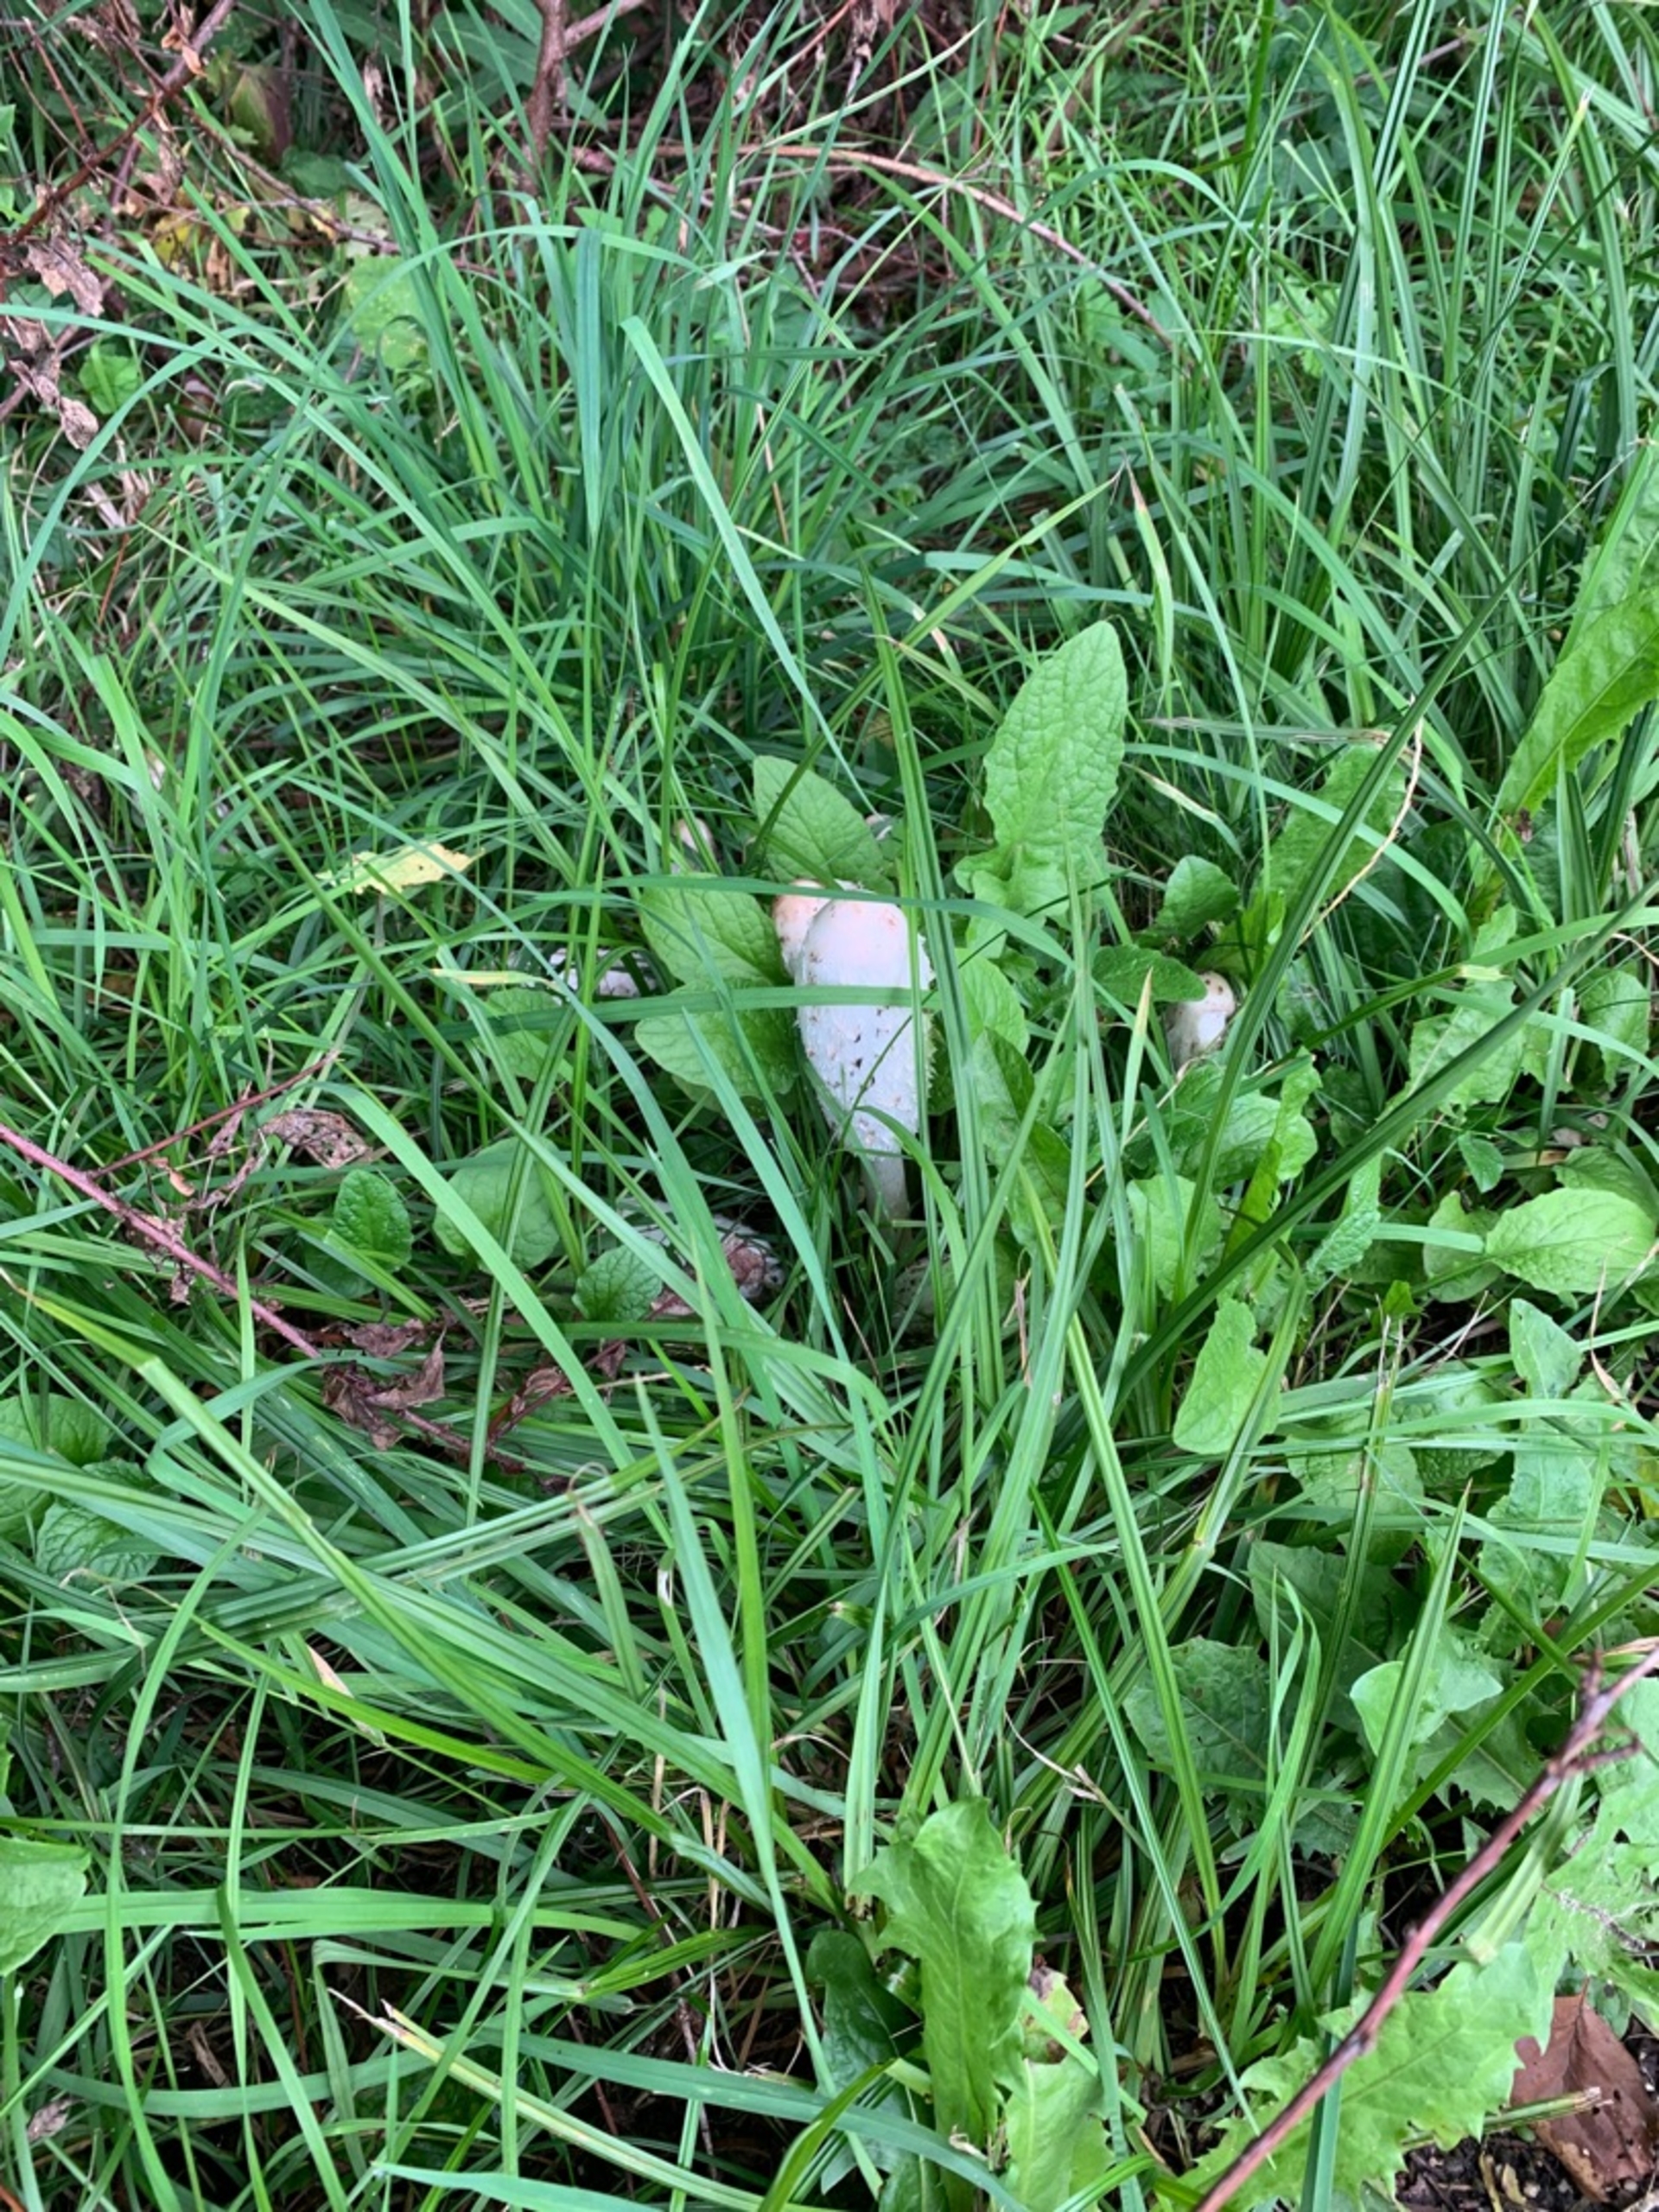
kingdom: Fungi
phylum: Basidiomycota
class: Agaricomycetes
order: Agaricales
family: Agaricaceae
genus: Coprinus
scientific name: Coprinus comatus
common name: Stor parykhat
